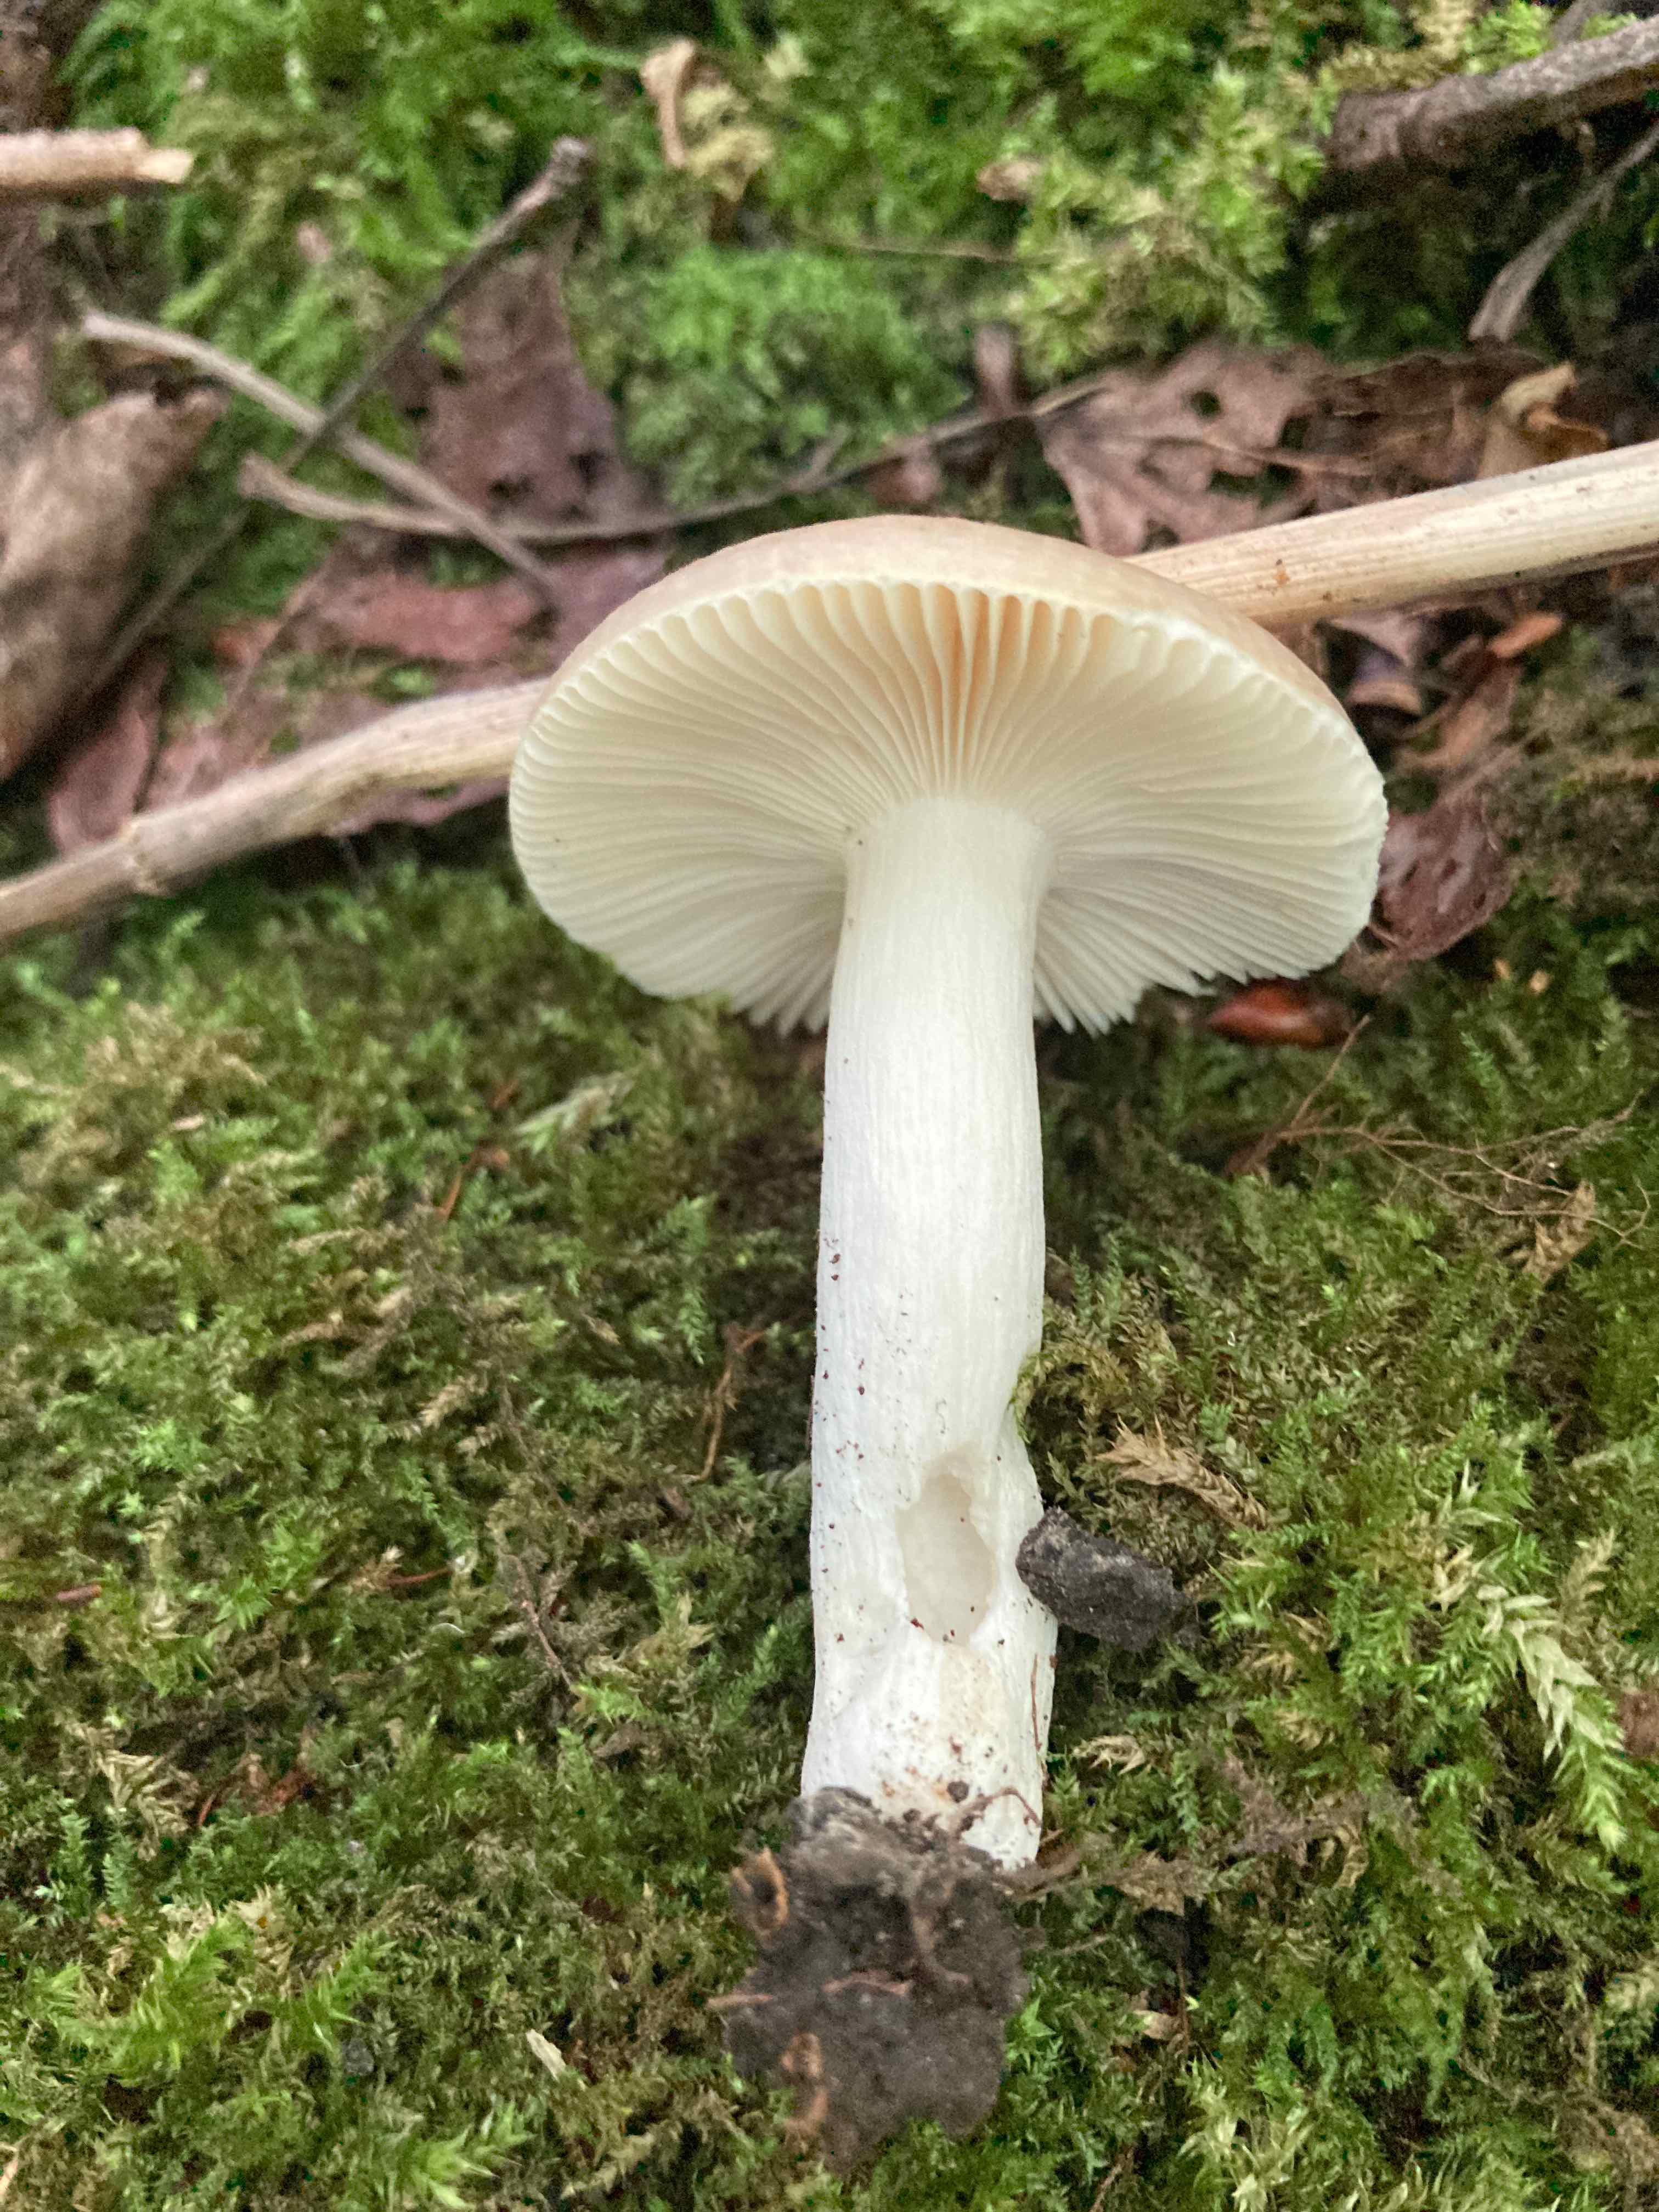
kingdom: Fungi
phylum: Basidiomycota
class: Agaricomycetes
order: Russulales
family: Russulaceae
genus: Russula
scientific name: Russula pelargonia
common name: pelargonie-skørhat
